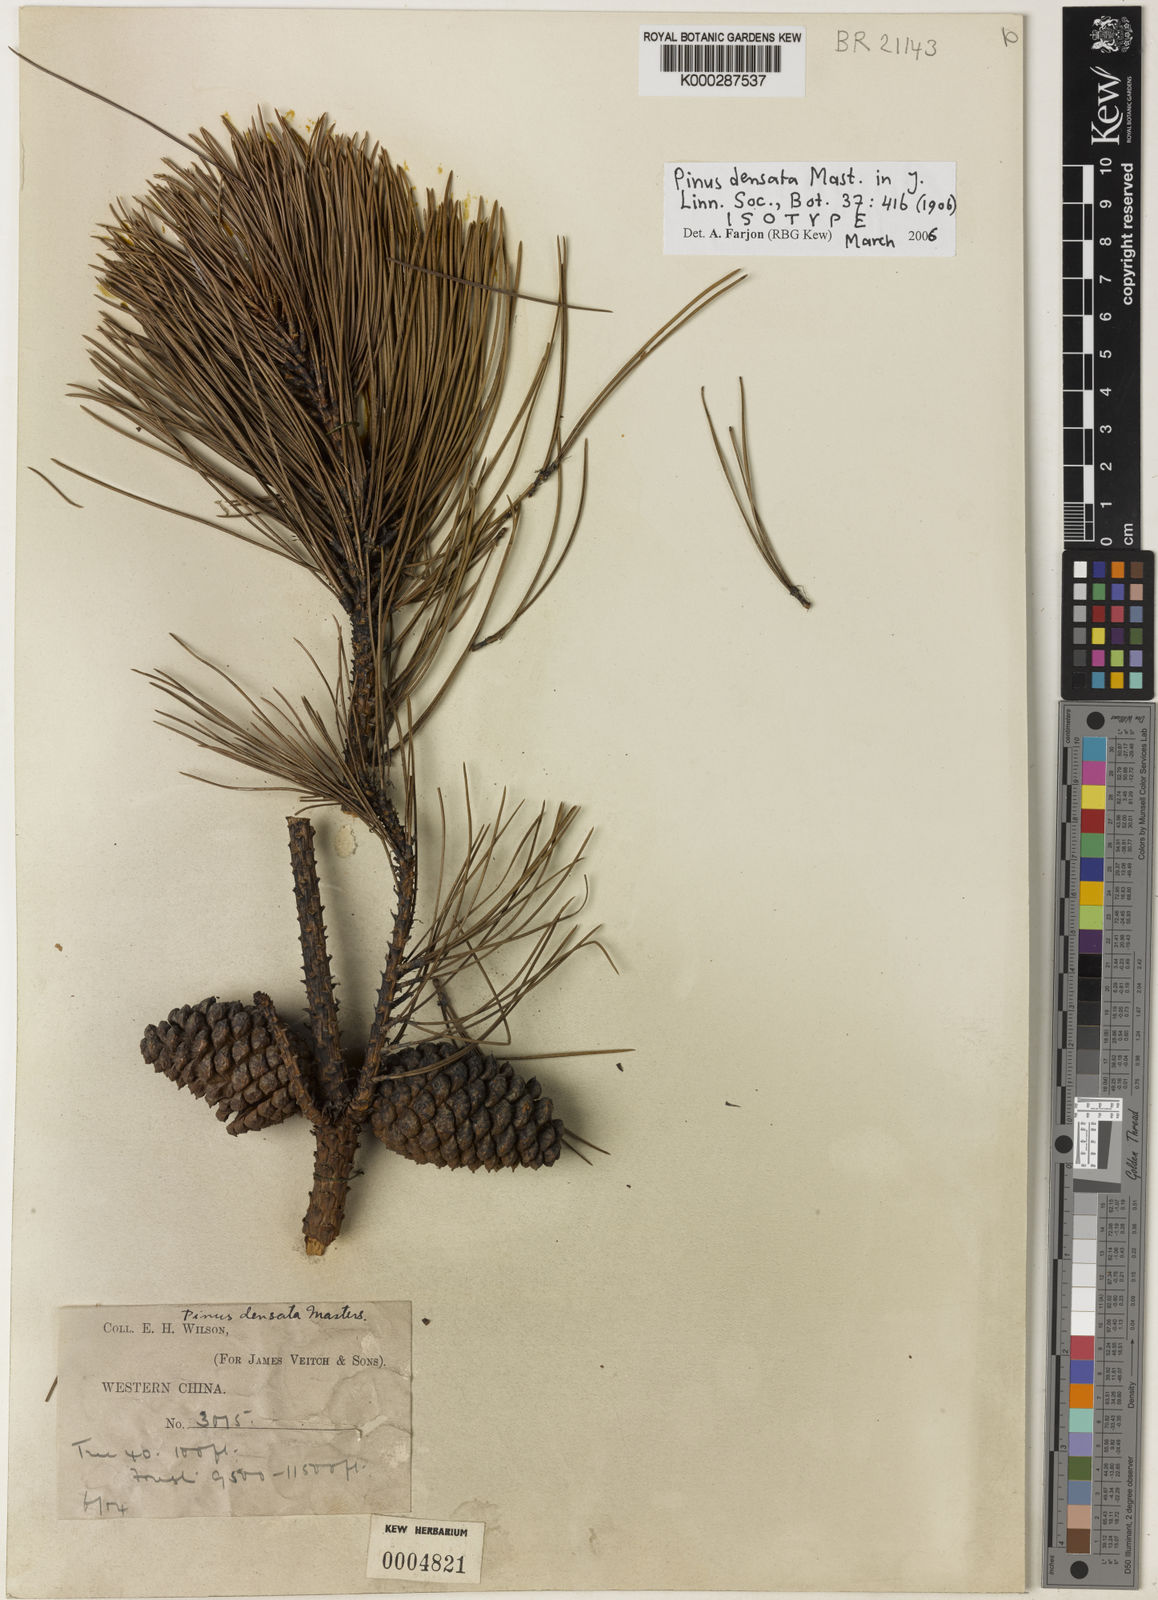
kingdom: Plantae
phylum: Tracheophyta
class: Pinopsida
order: Pinales
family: Pinaceae
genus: Pinus
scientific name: Pinus densata
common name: Gaoshan pine
